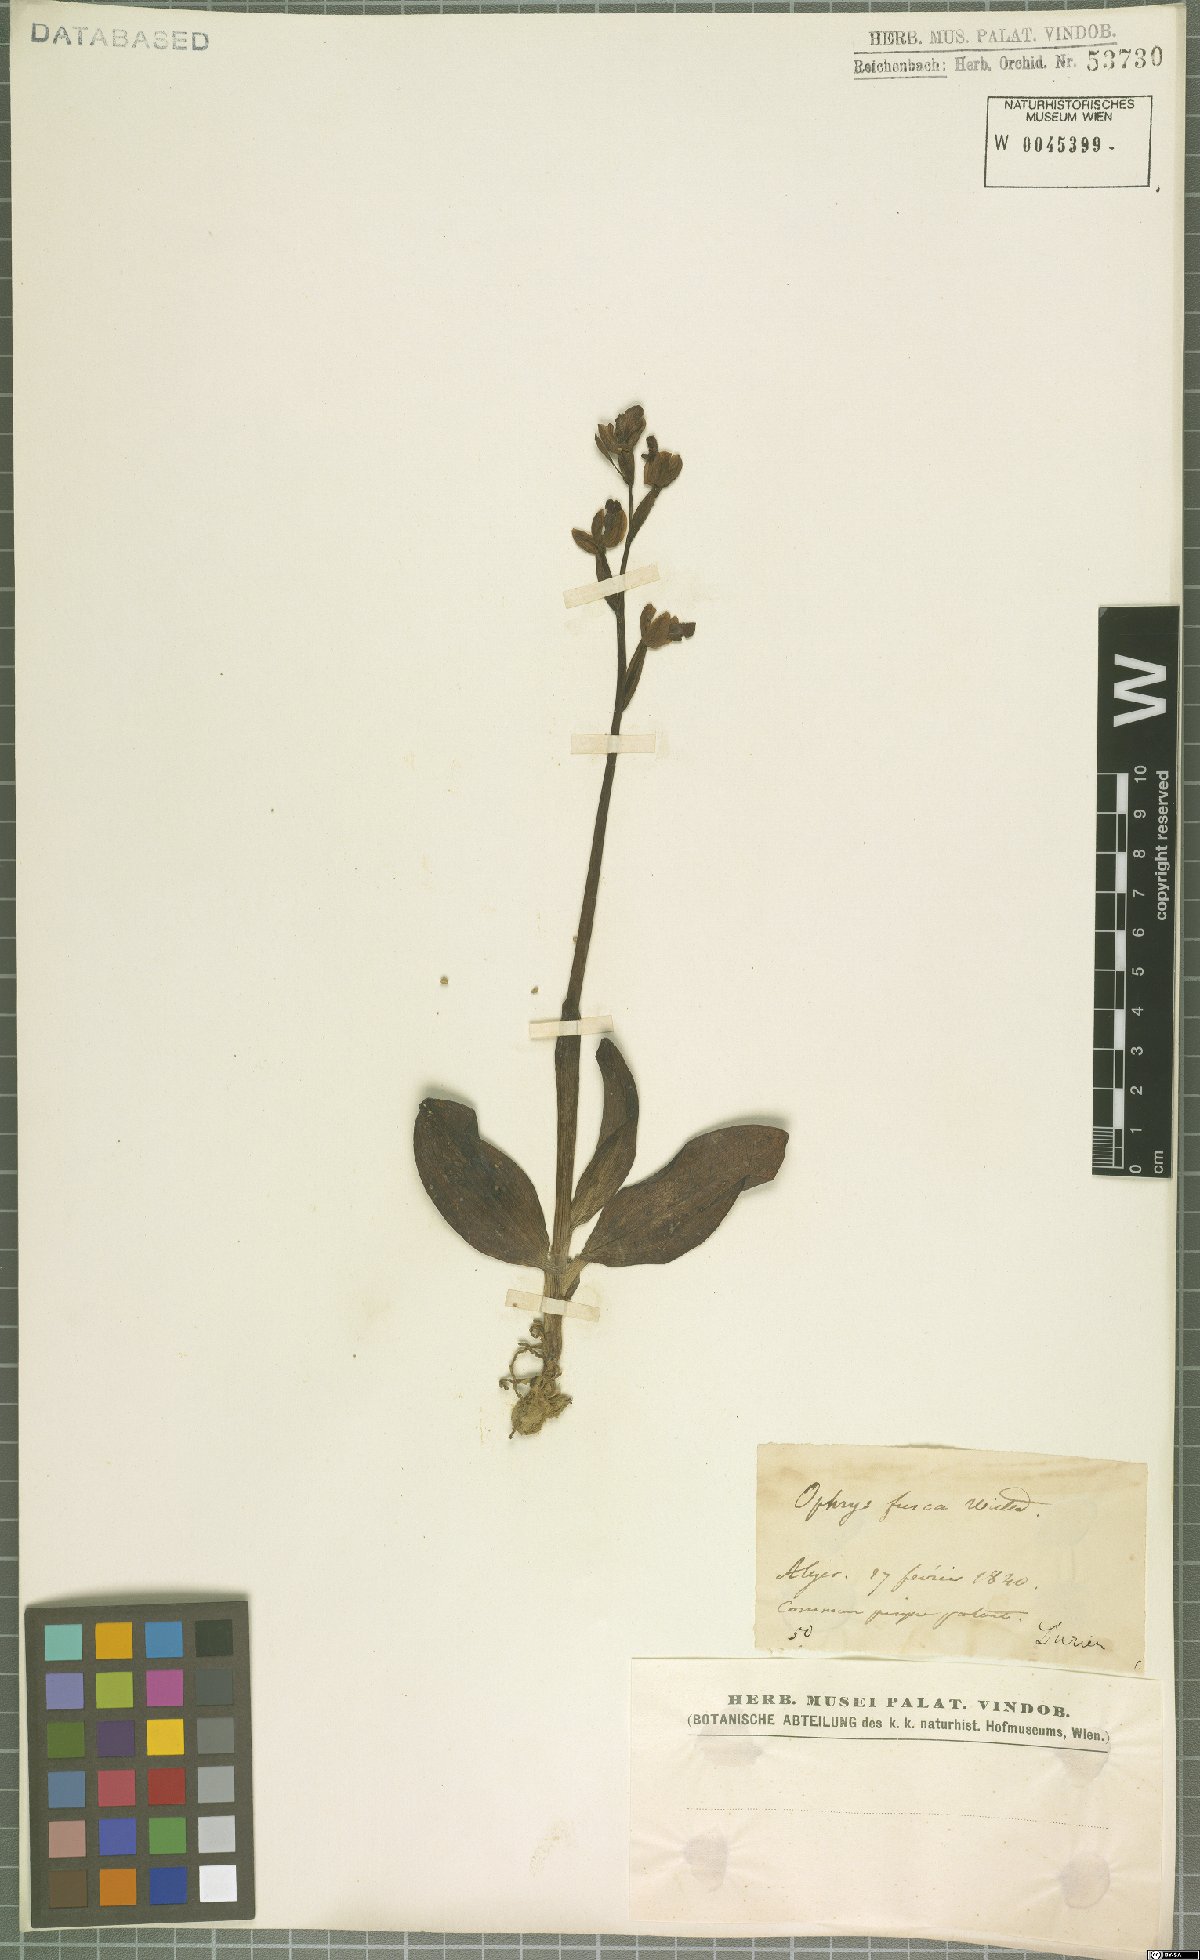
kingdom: Plantae
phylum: Tracheophyta
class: Liliopsida
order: Asparagales
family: Orchidaceae
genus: Ophrys
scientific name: Ophrys fusca
